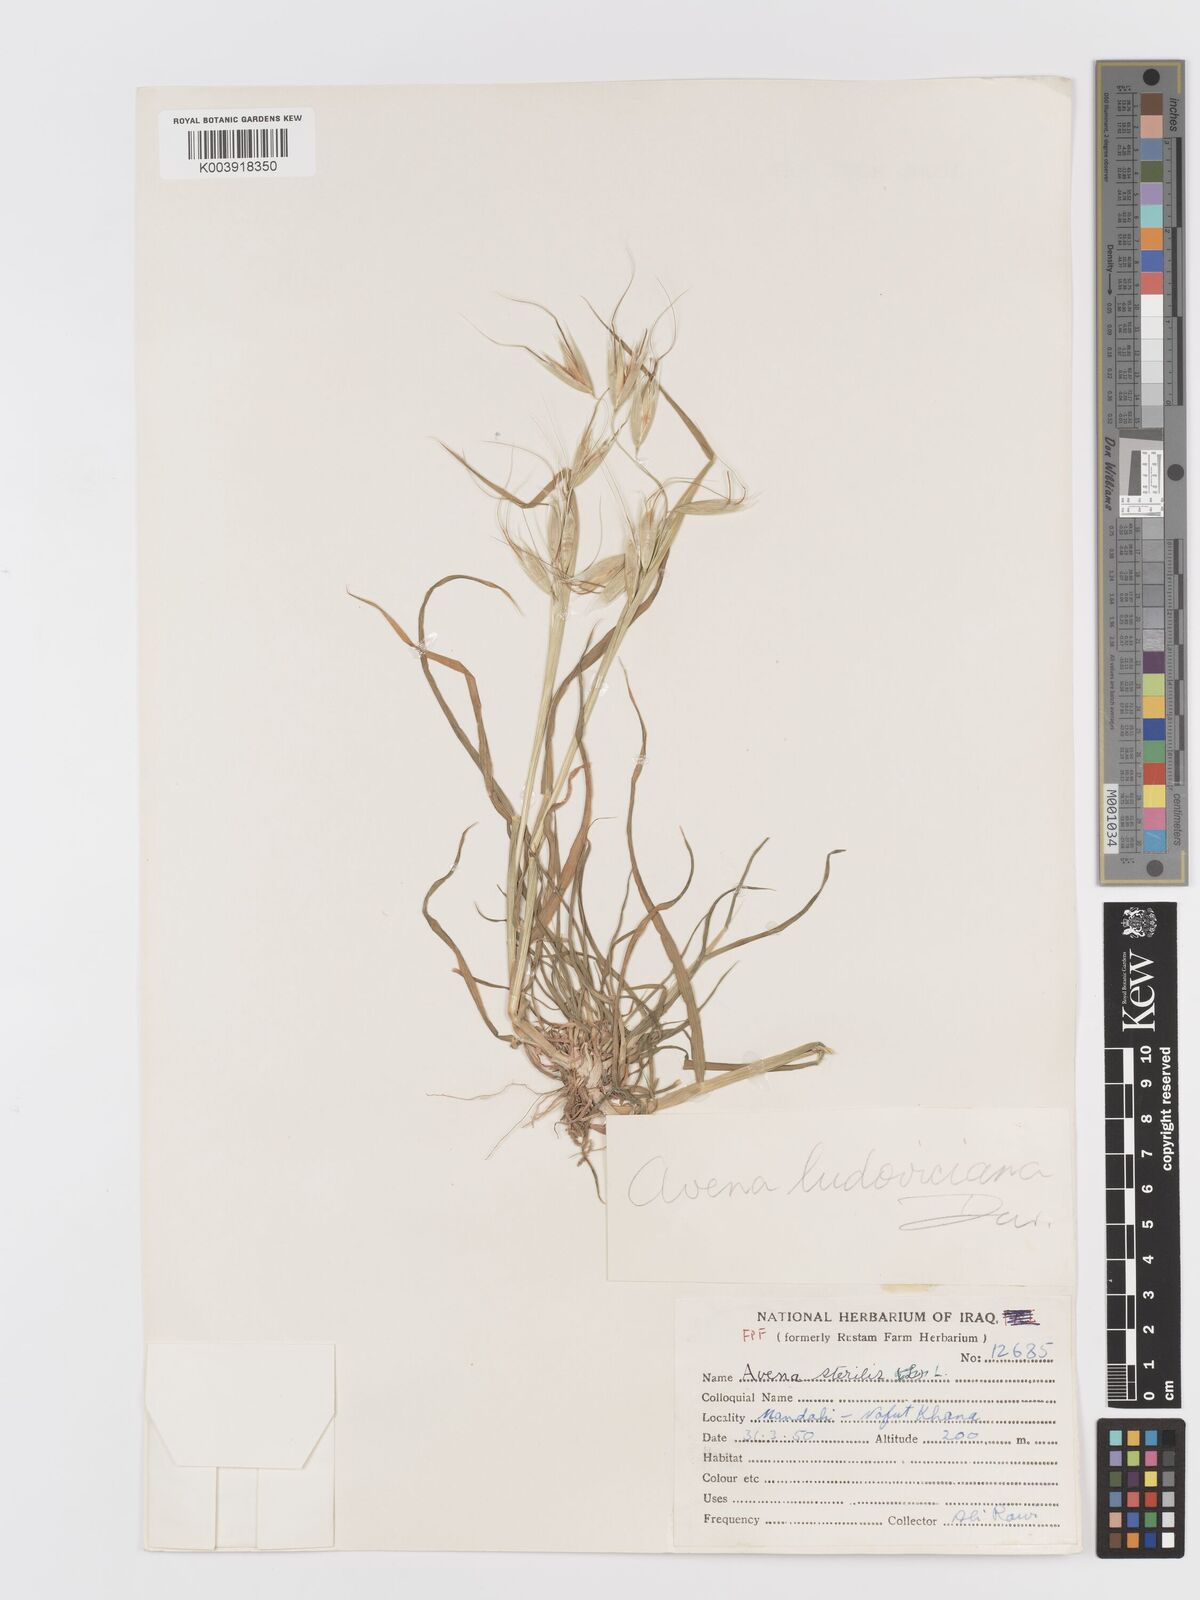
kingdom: Plantae
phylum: Tracheophyta
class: Liliopsida
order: Poales
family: Poaceae
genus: Avena
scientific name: Avena sterilis
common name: Animated oat
